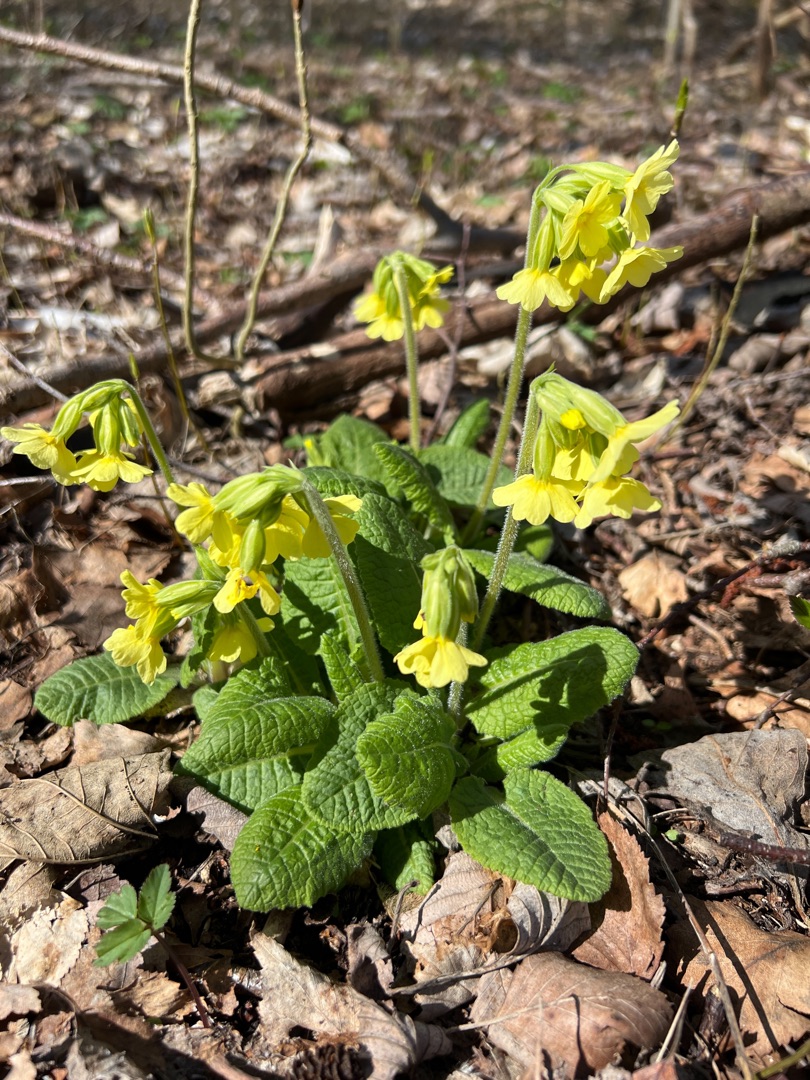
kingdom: Plantae
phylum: Tracheophyta
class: Magnoliopsida
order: Ericales
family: Primulaceae
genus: Primula
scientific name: Primula elatior
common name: Fladkravet kodriver
